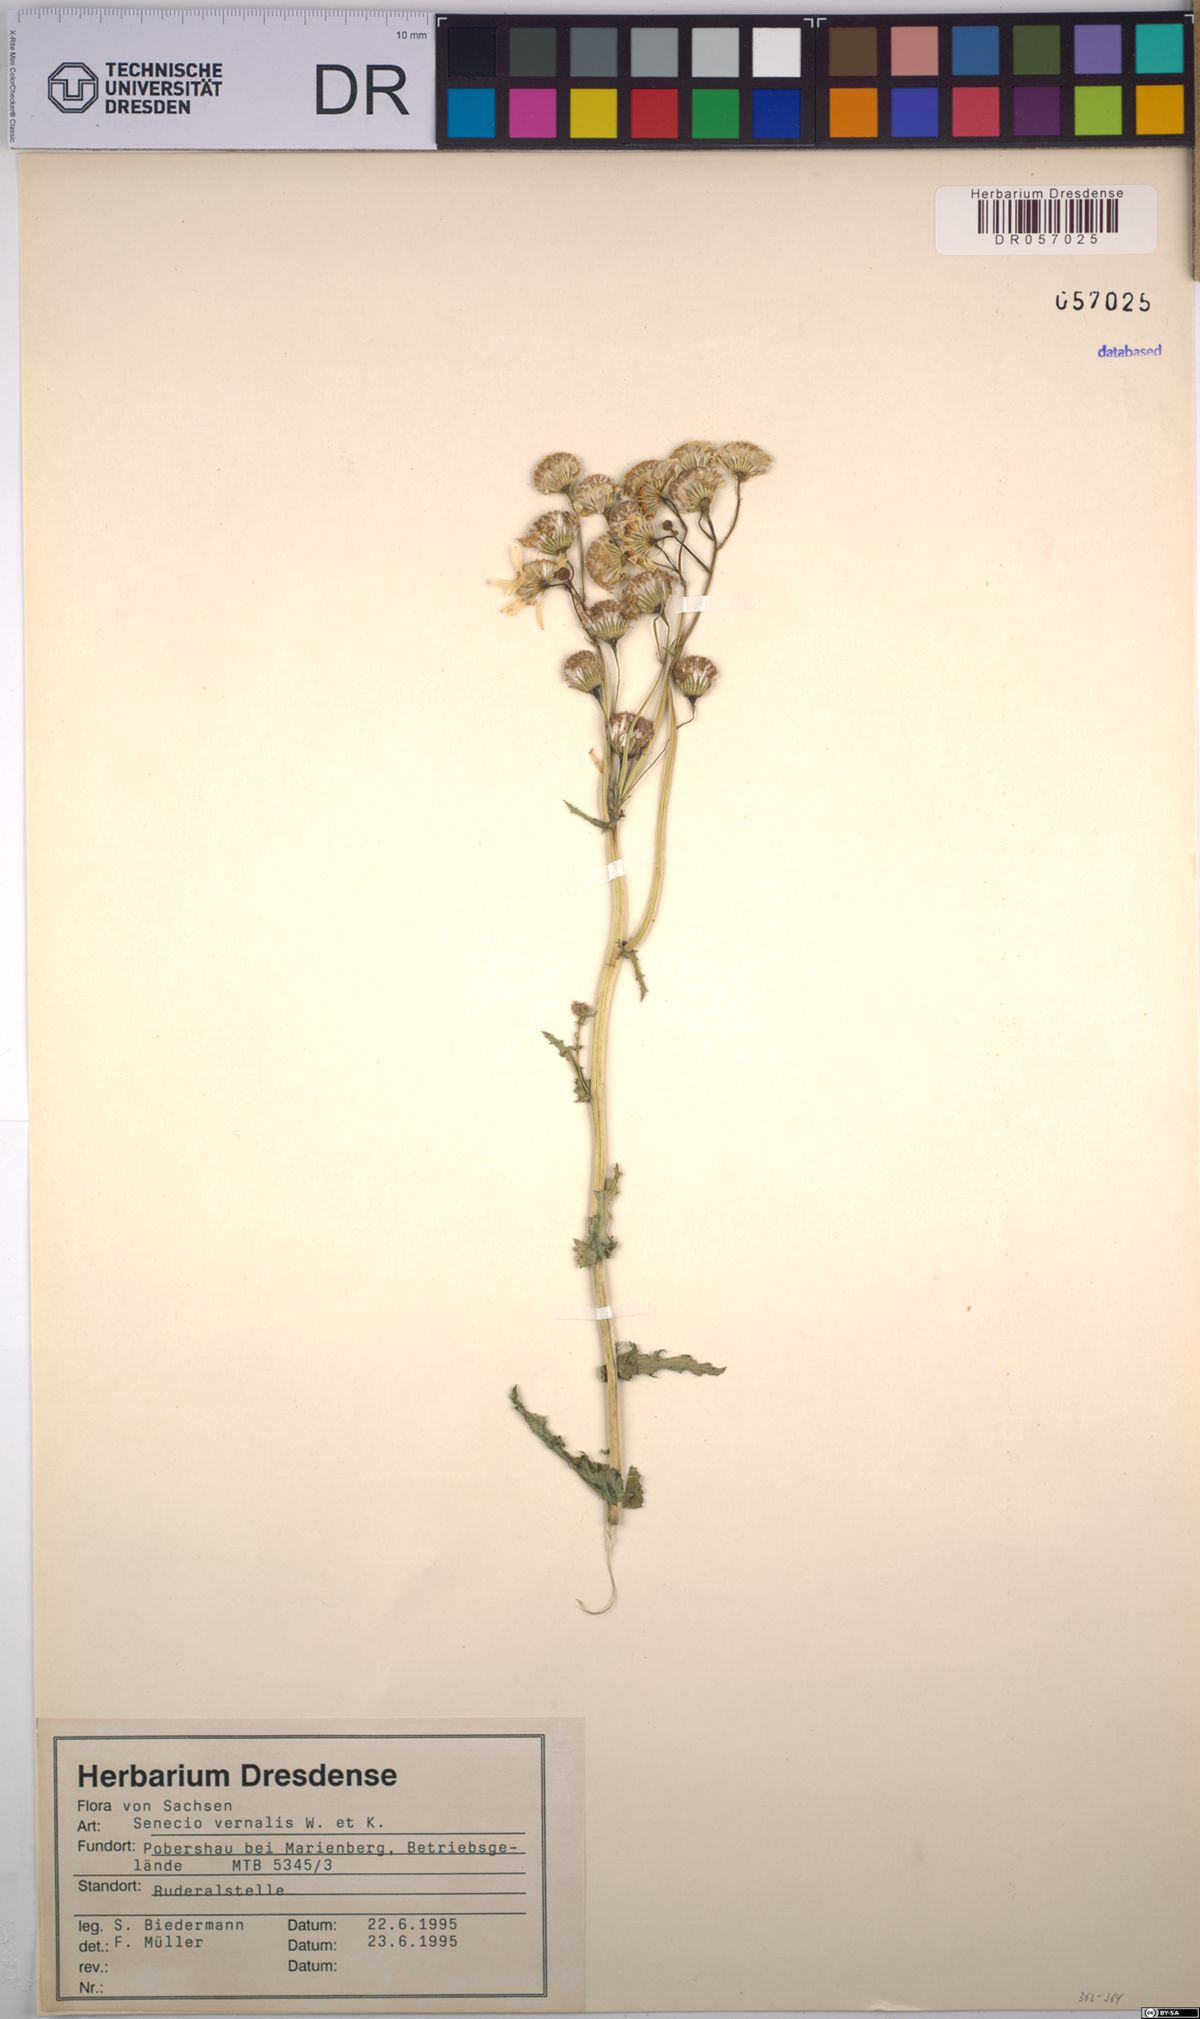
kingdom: Plantae
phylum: Tracheophyta
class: Magnoliopsida
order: Asterales
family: Asteraceae
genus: Senecio
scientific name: Senecio vernalis
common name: Eastern groundsel
